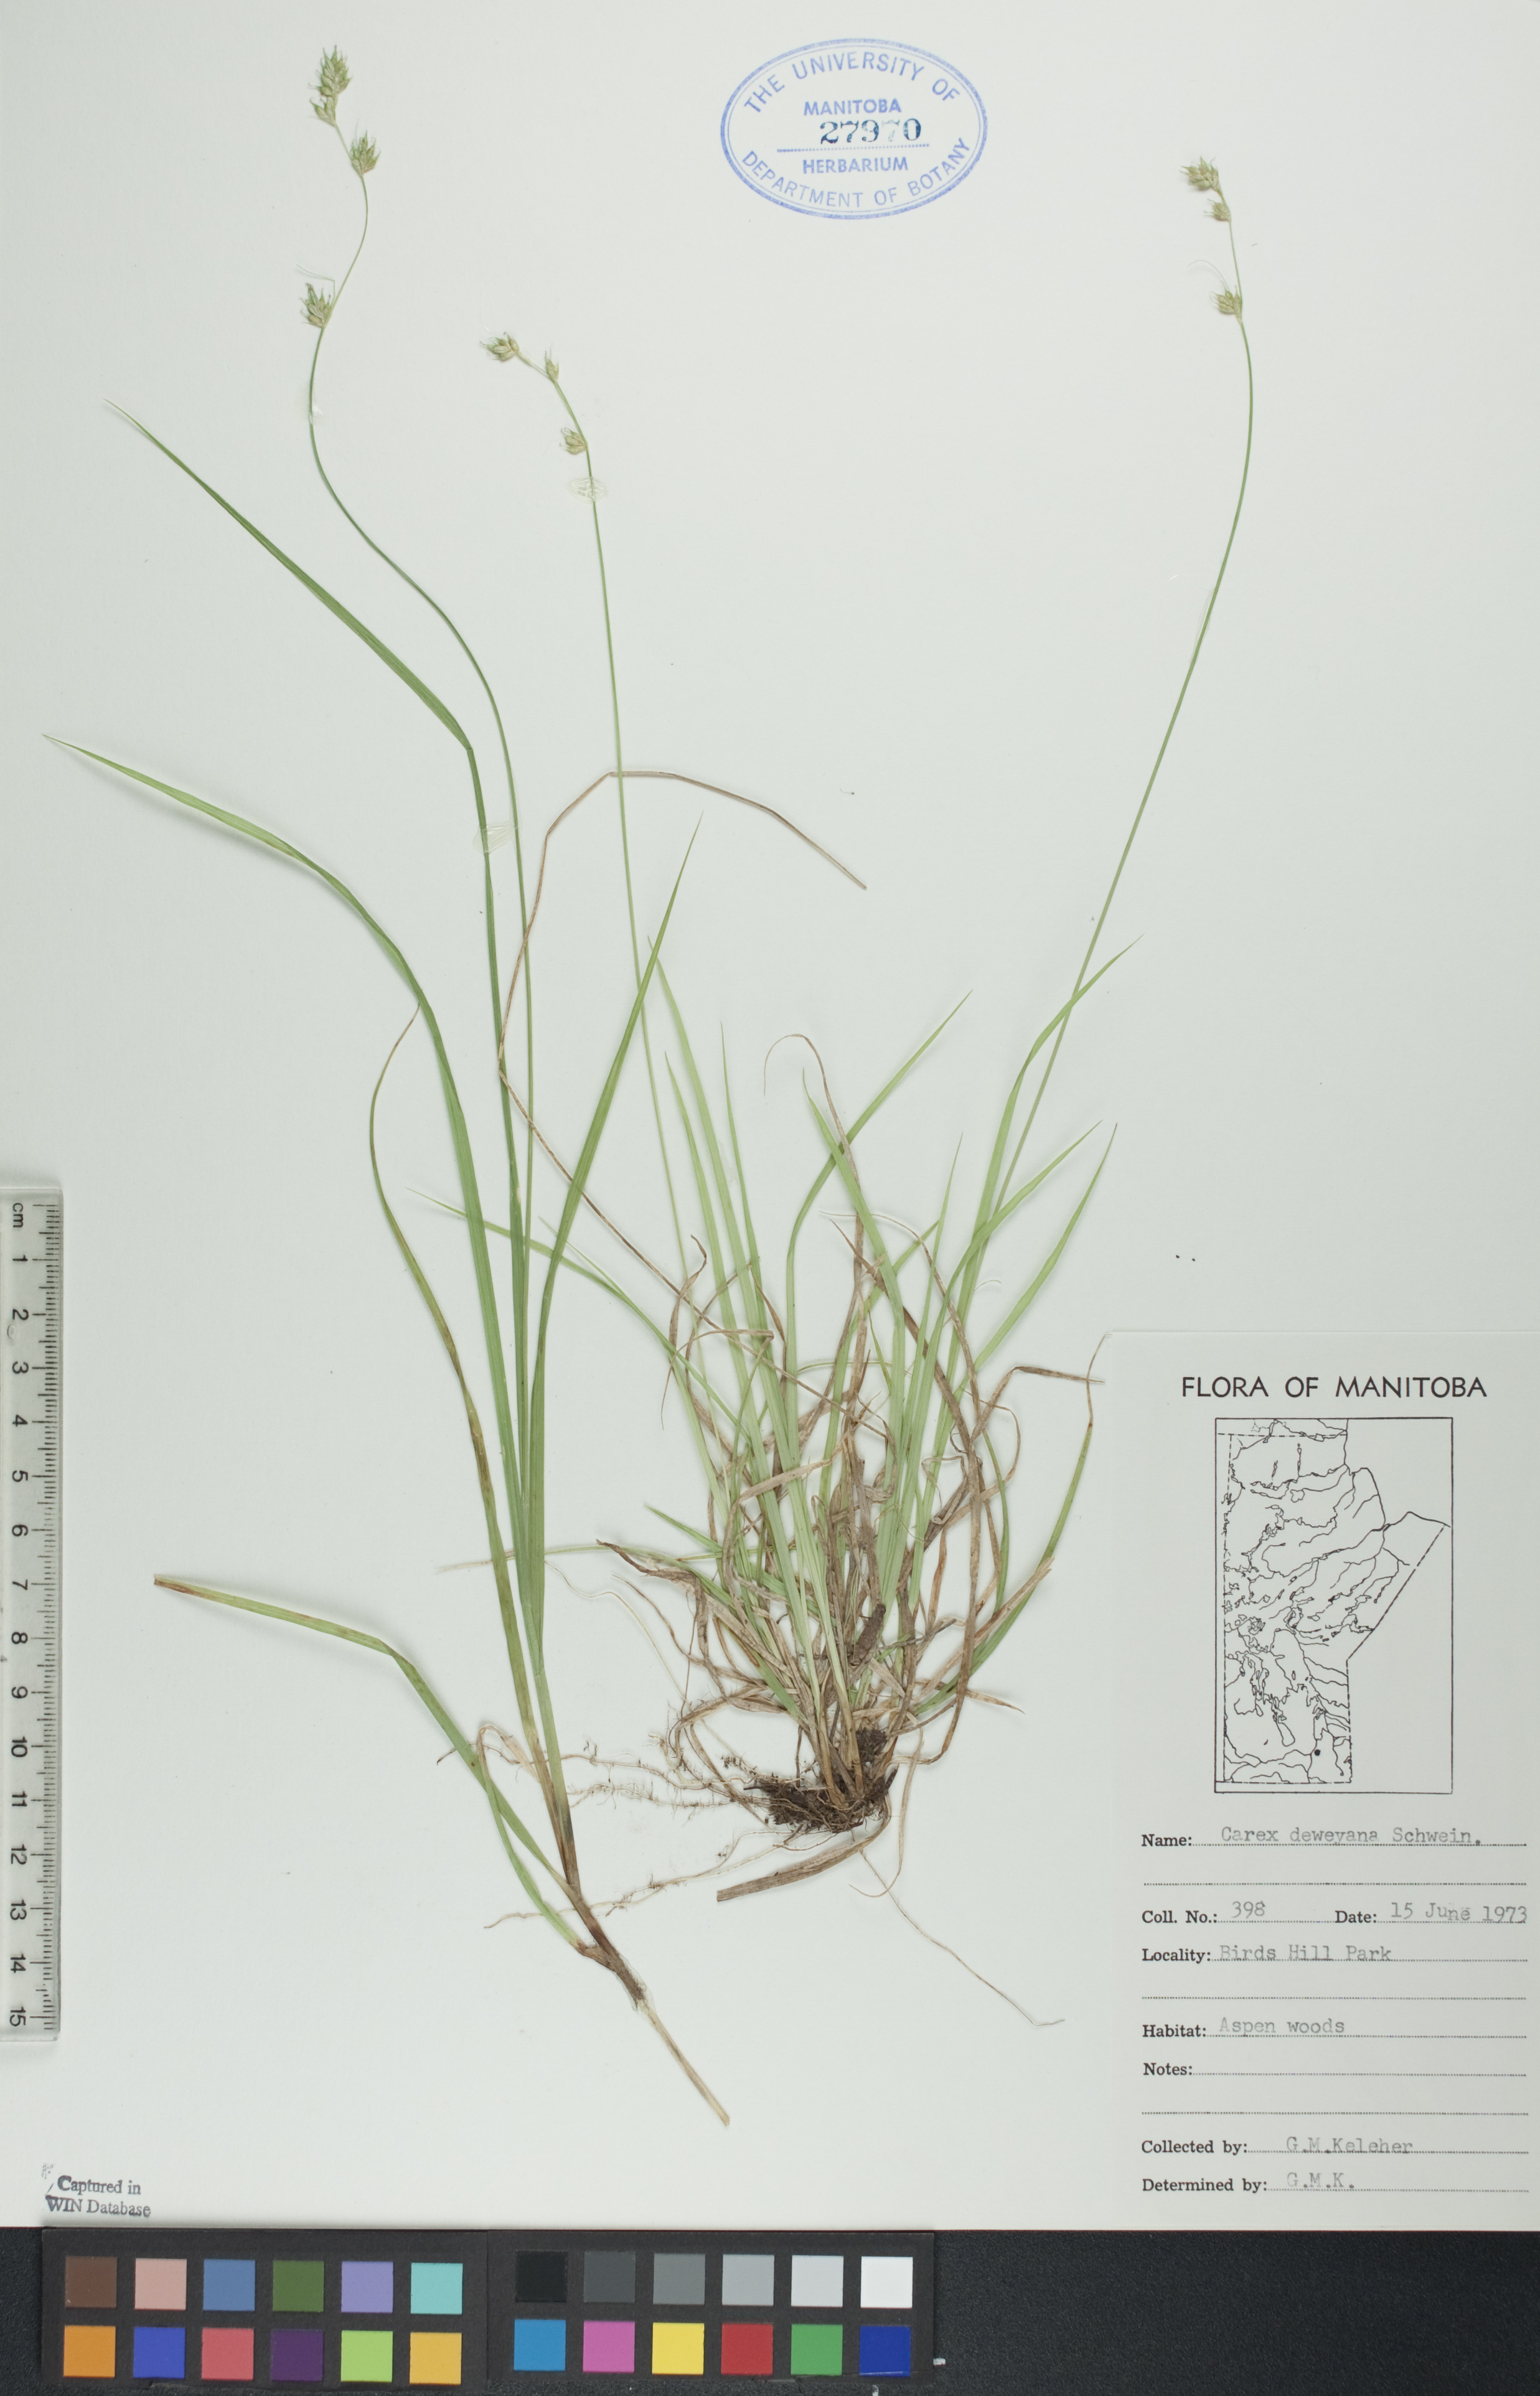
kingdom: Plantae
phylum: Tracheophyta
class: Liliopsida
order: Poales
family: Cyperaceae
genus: Carex
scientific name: Carex deweyana
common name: Dewey's sedge
